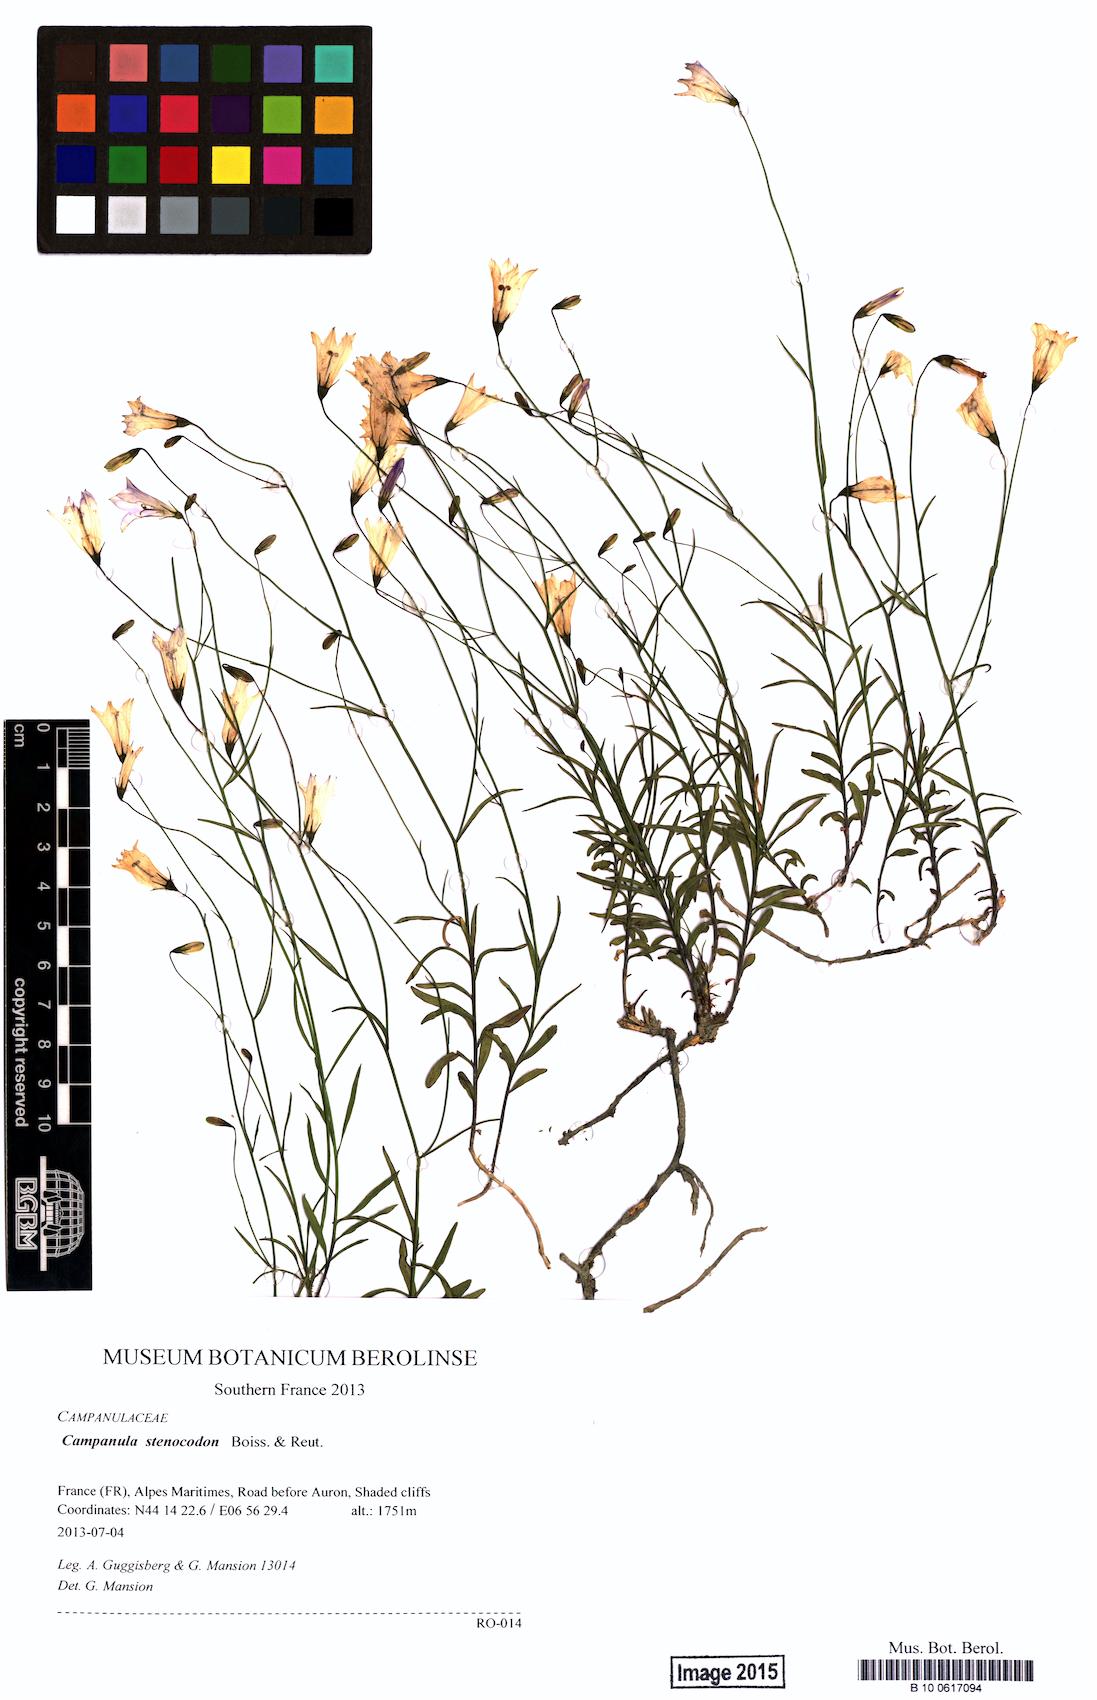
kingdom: Plantae
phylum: Tracheophyta
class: Magnoliopsida
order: Asterales
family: Campanulaceae
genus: Campanula
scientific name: Campanula stenocodon
